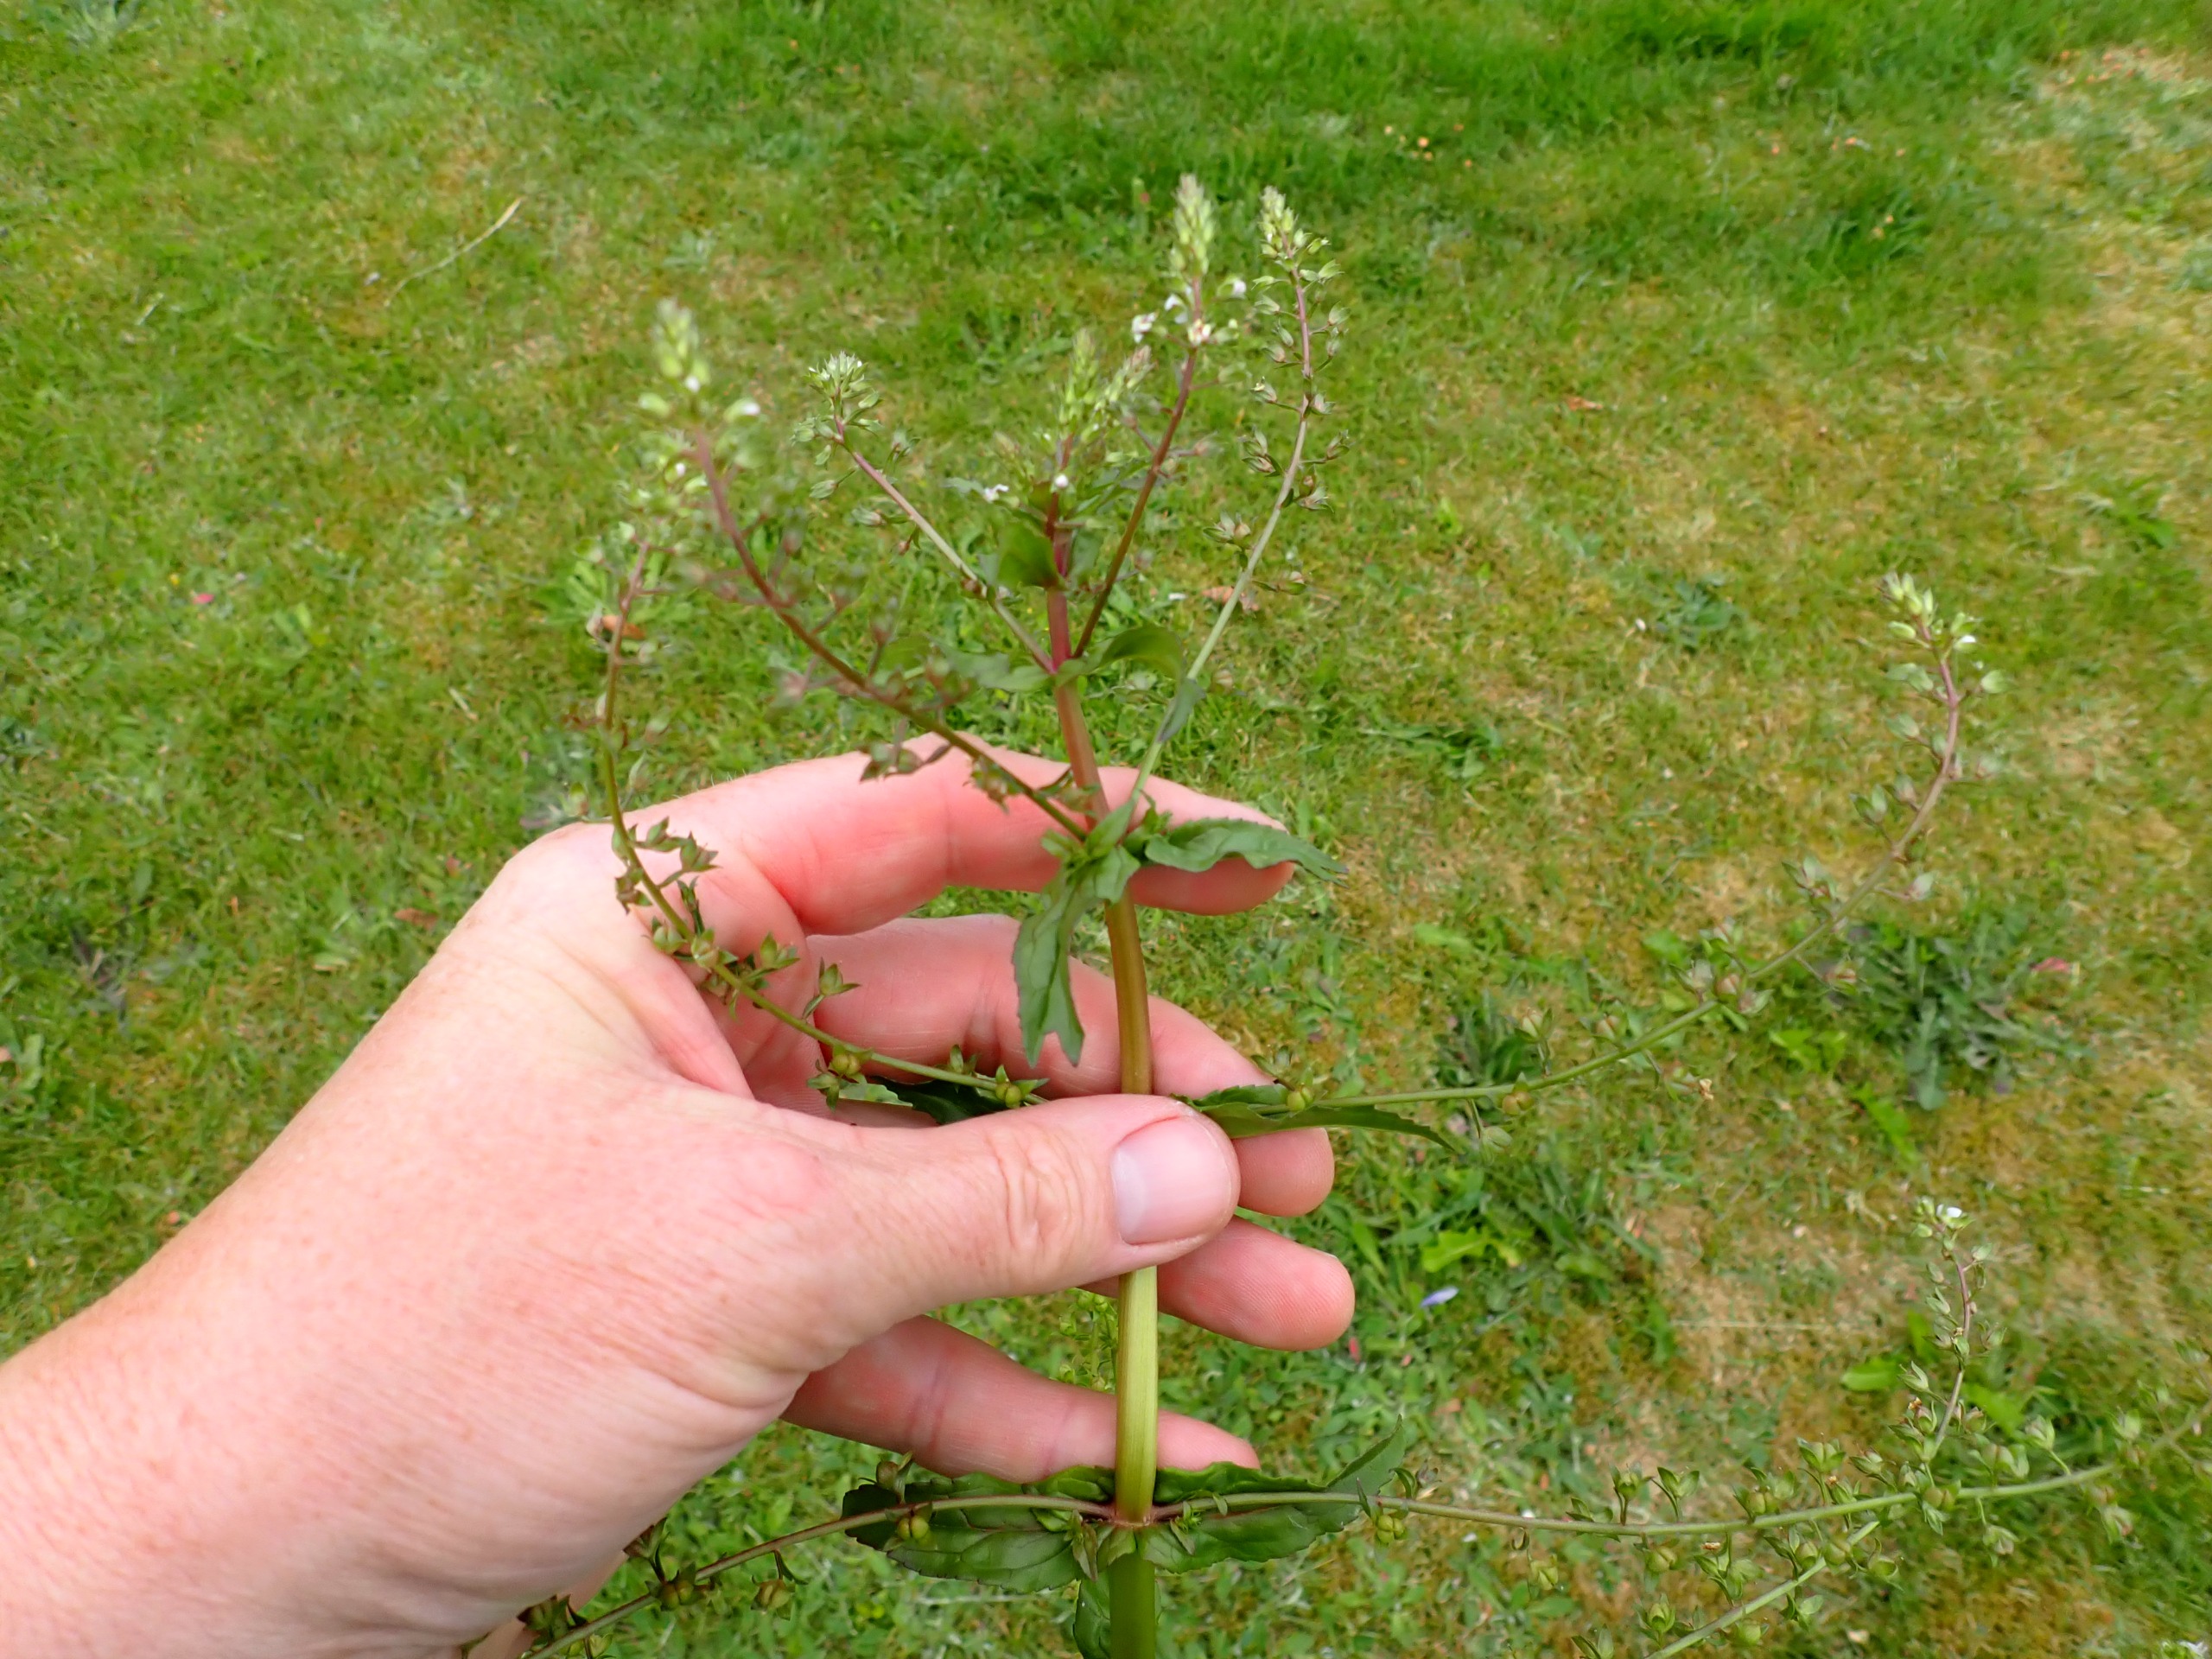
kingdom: Plantae
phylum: Tracheophyta
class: Magnoliopsida
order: Lamiales
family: Plantaginaceae
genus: Veronica
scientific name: Veronica catenata
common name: Vand-ærenpris
